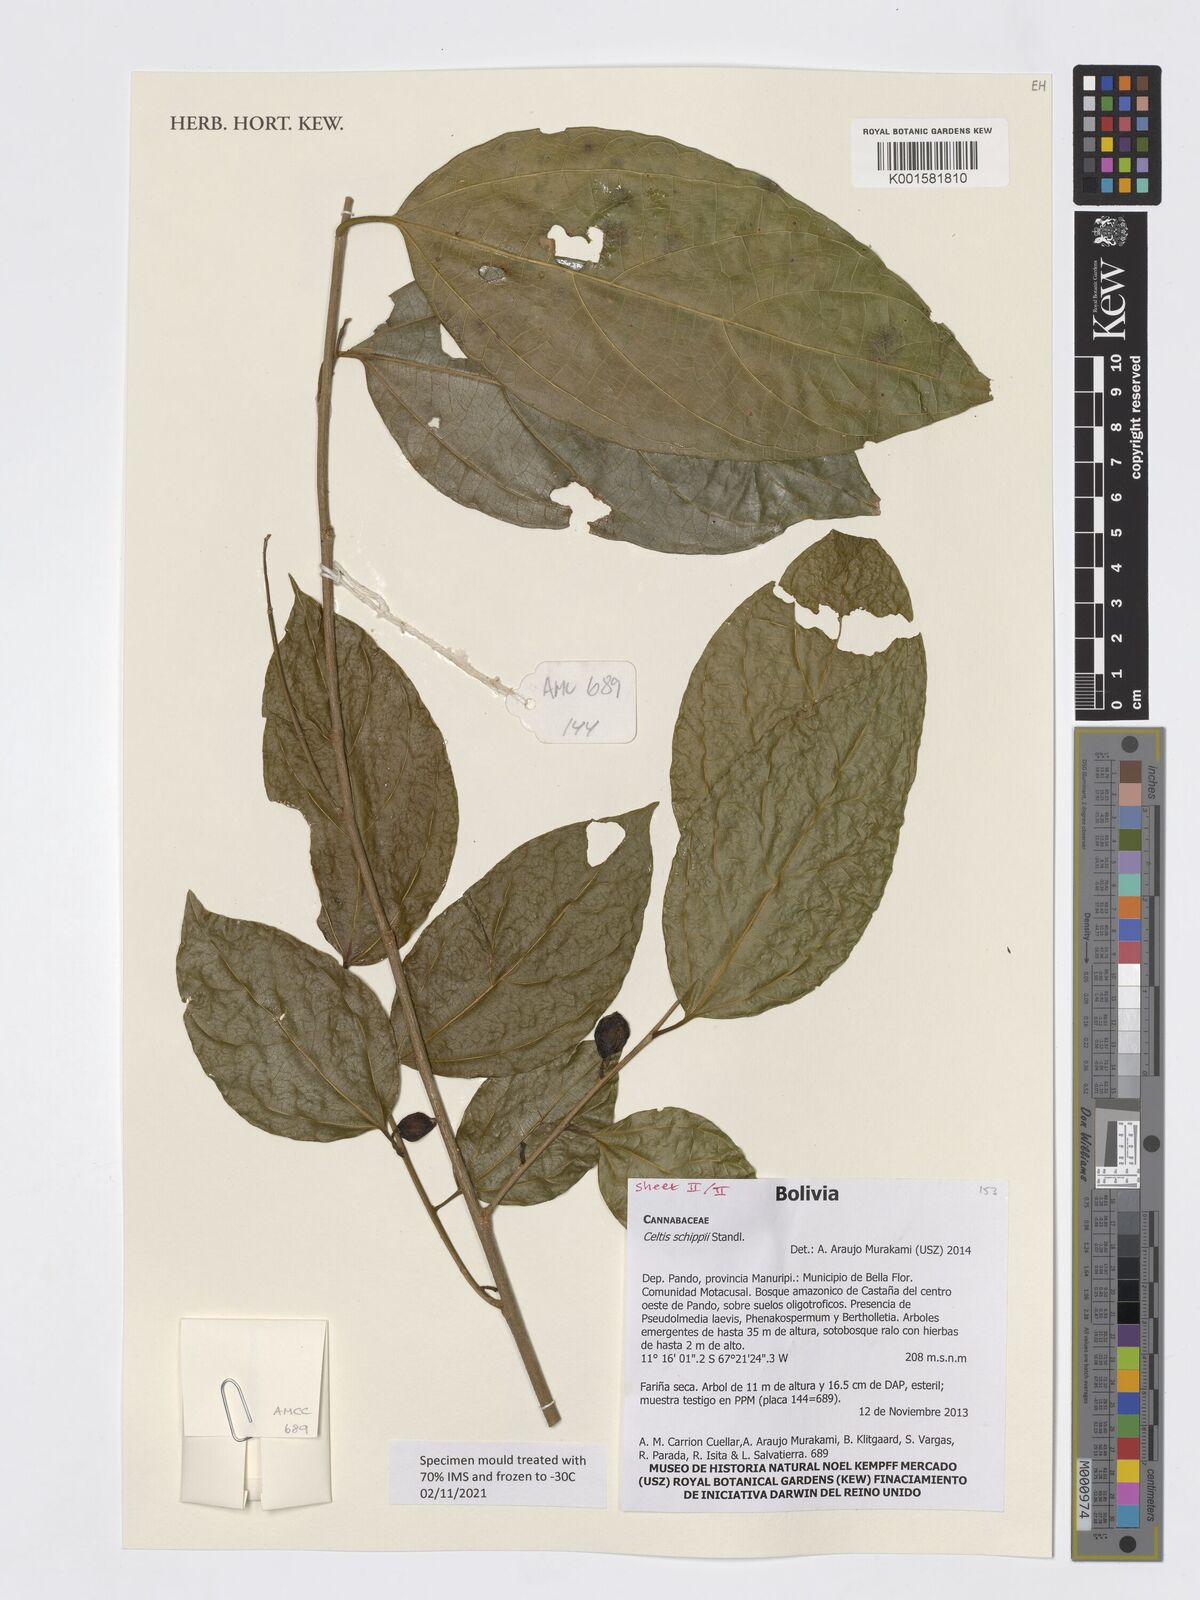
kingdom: Plantae
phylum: Tracheophyta
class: Magnoliopsida
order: Rosales
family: Cannabaceae
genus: Celtis
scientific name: Celtis schippii
